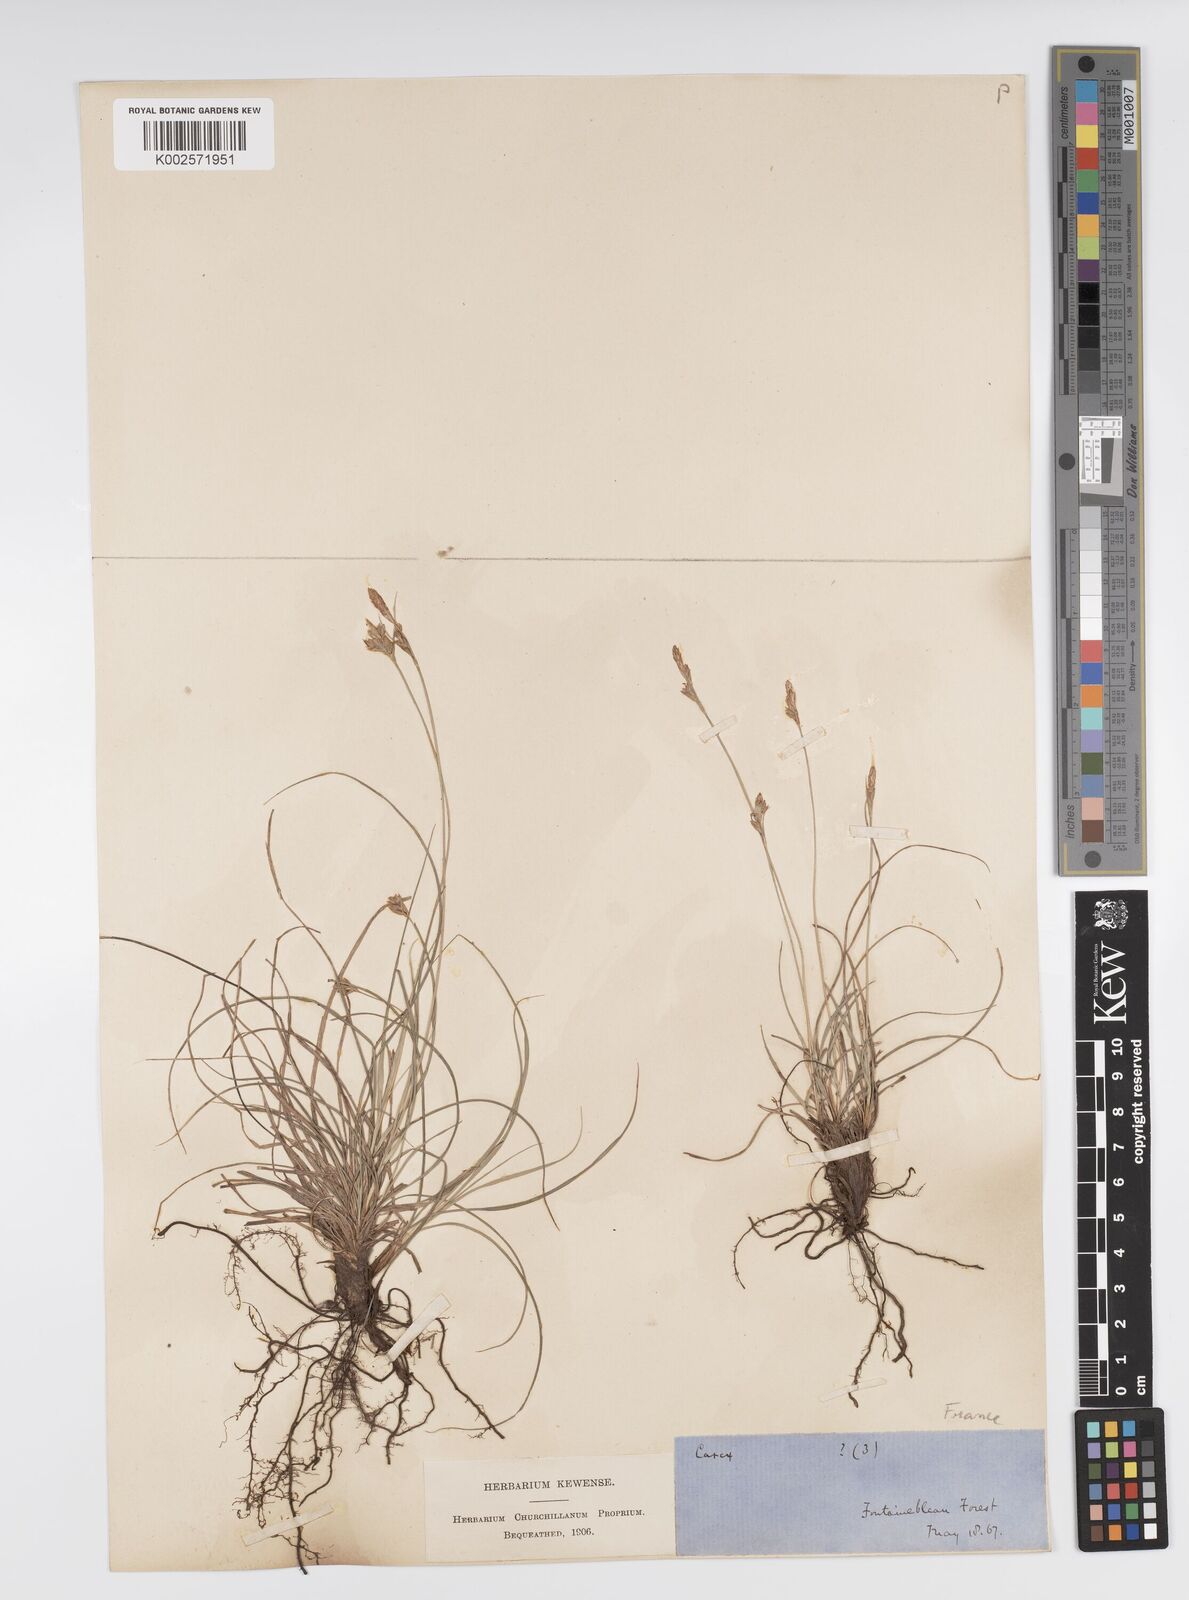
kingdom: Plantae
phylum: Tracheophyta
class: Liliopsida
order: Poales
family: Cyperaceae
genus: Carex
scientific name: Carex halleriana
